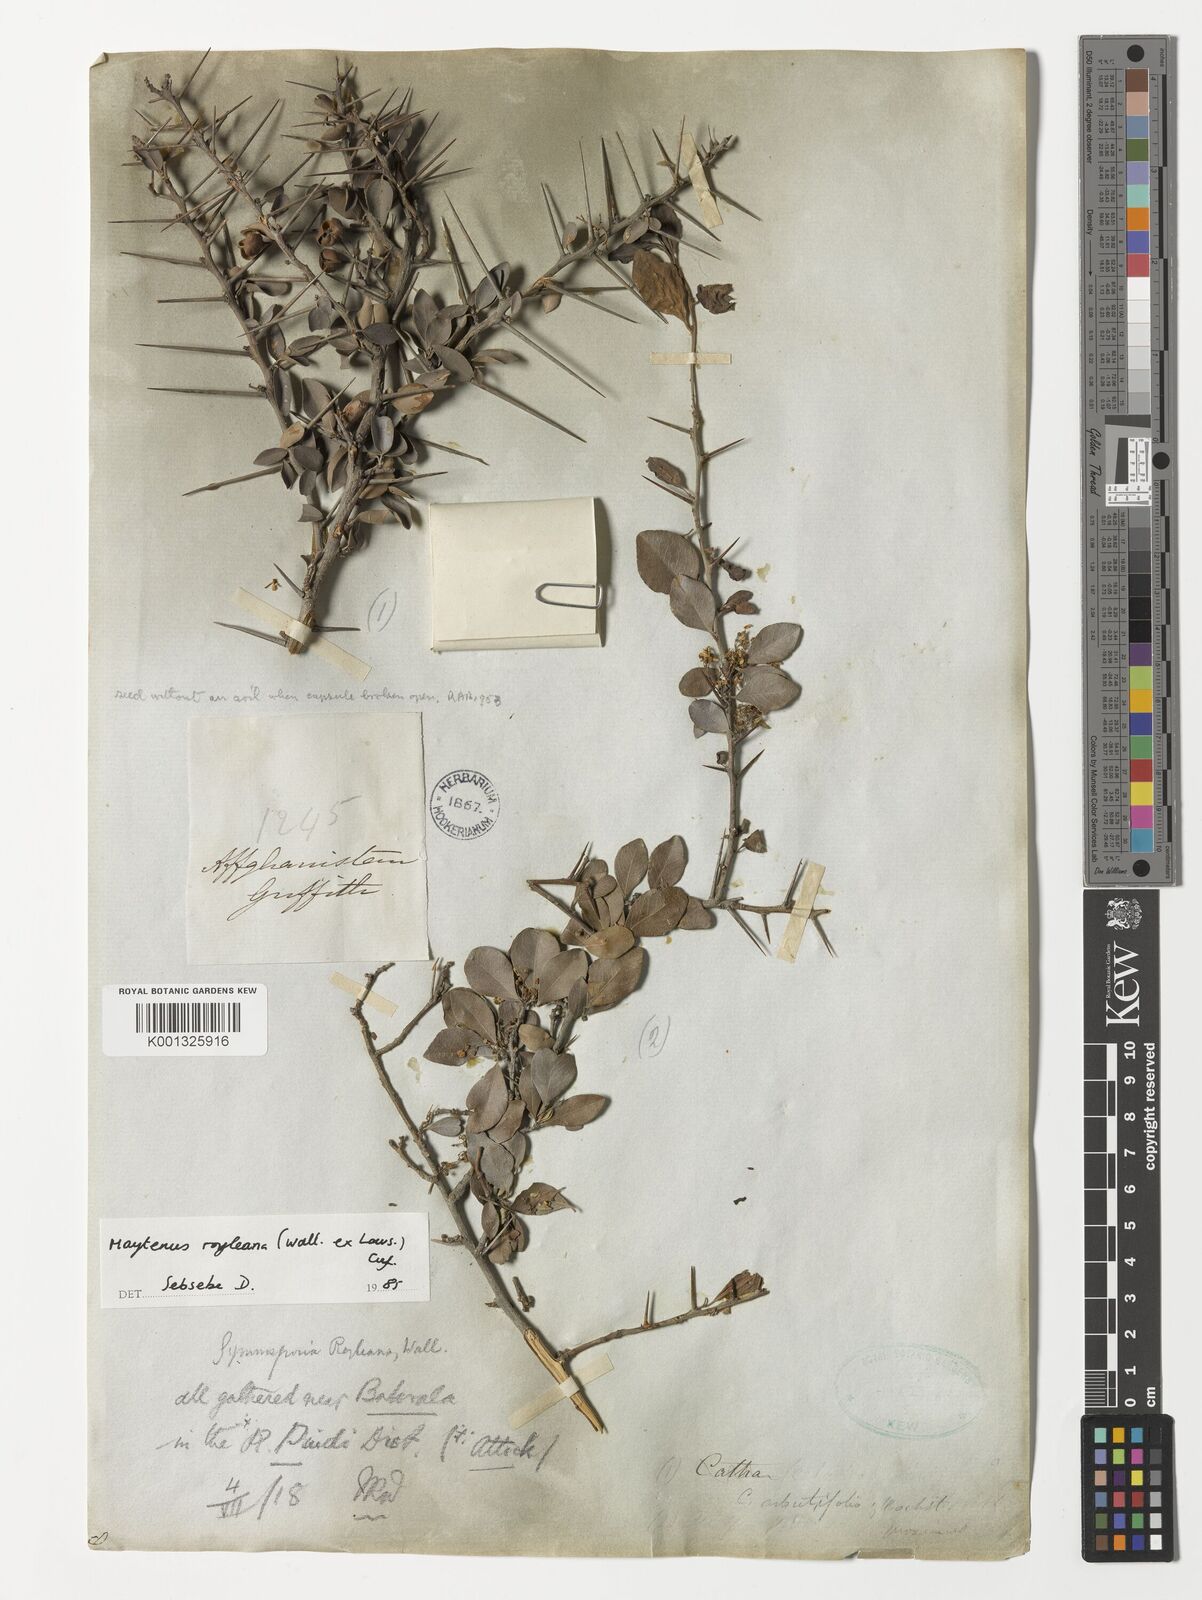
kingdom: Plantae
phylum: Tracheophyta
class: Magnoliopsida
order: Celastrales
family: Celastraceae
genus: Gymnosporia
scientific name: Gymnosporia royleana
